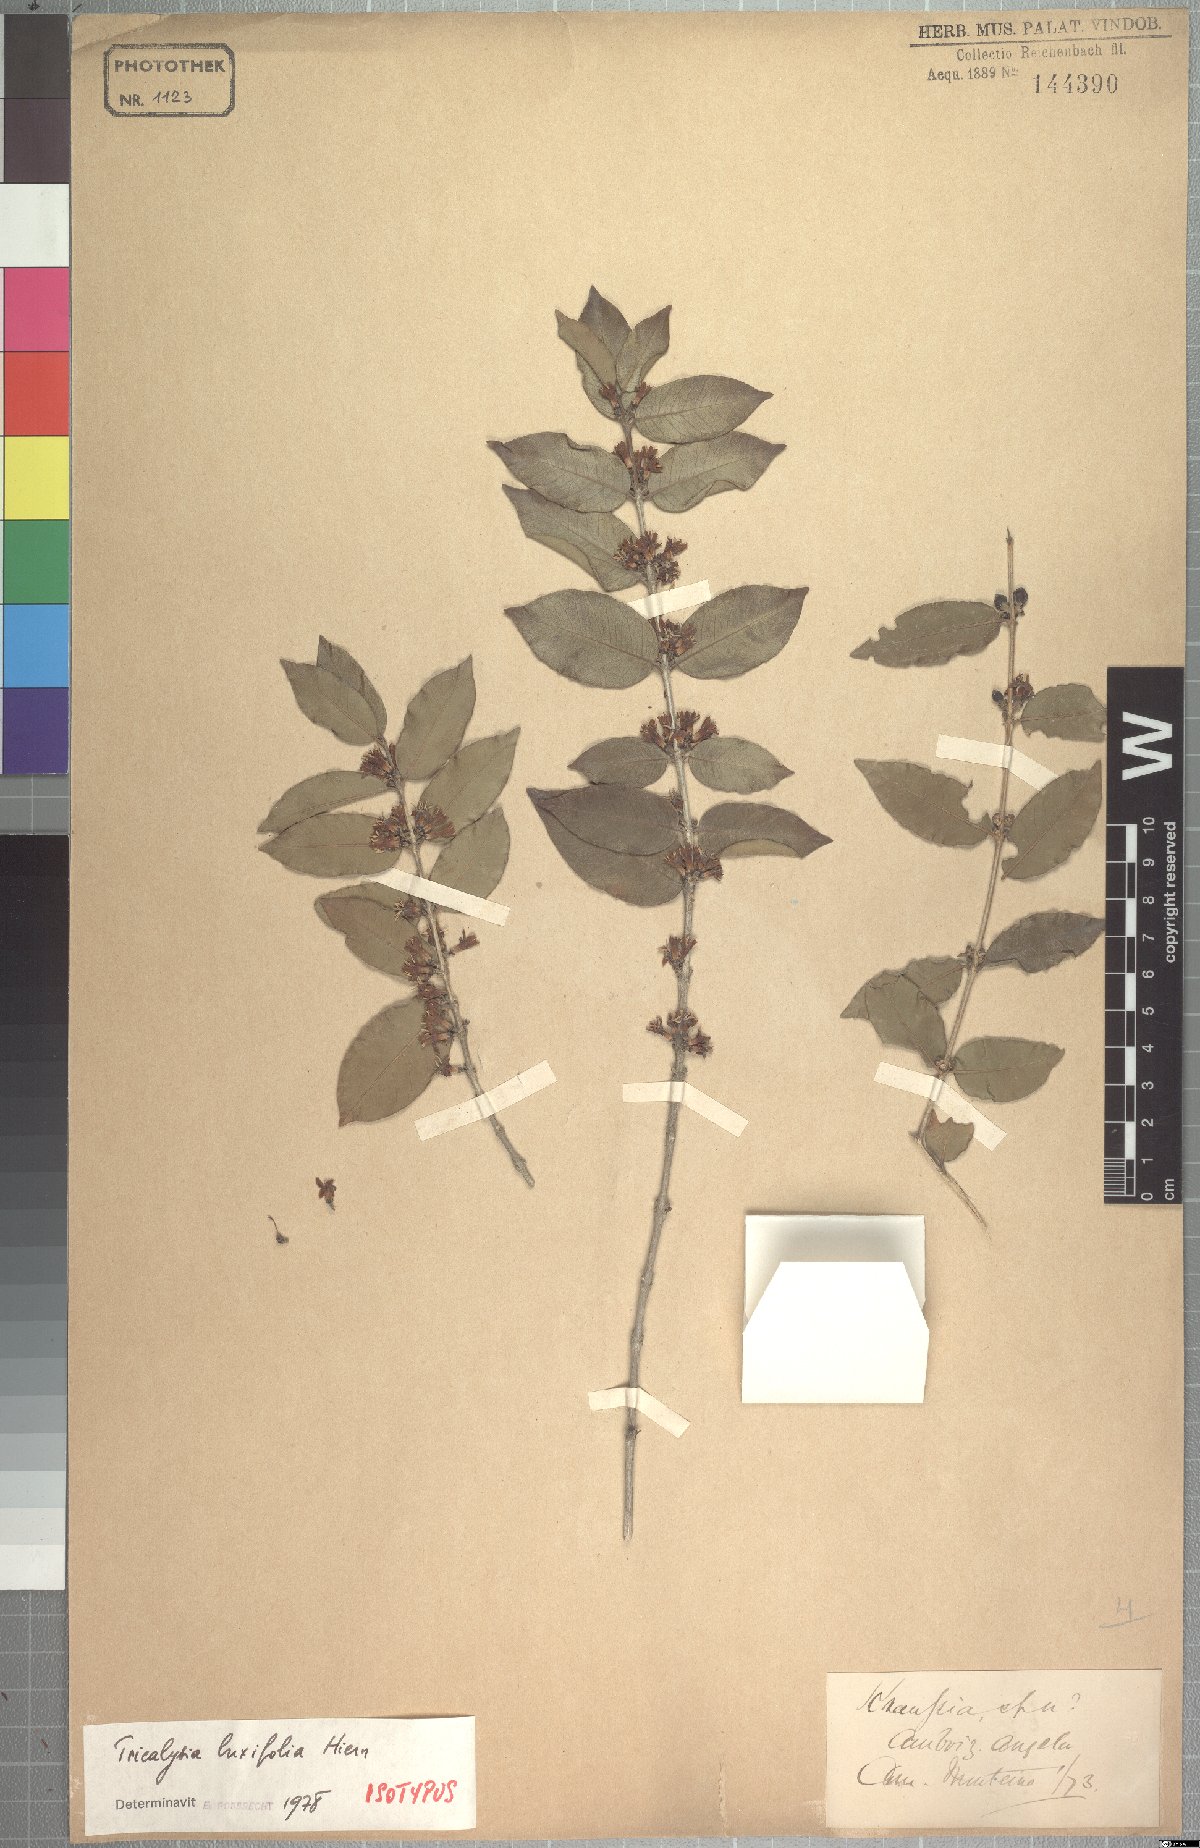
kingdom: Plantae
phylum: Tracheophyta
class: Magnoliopsida
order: Gentianales
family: Rubiaceae
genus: Empogona
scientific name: Empogona buxifolia
